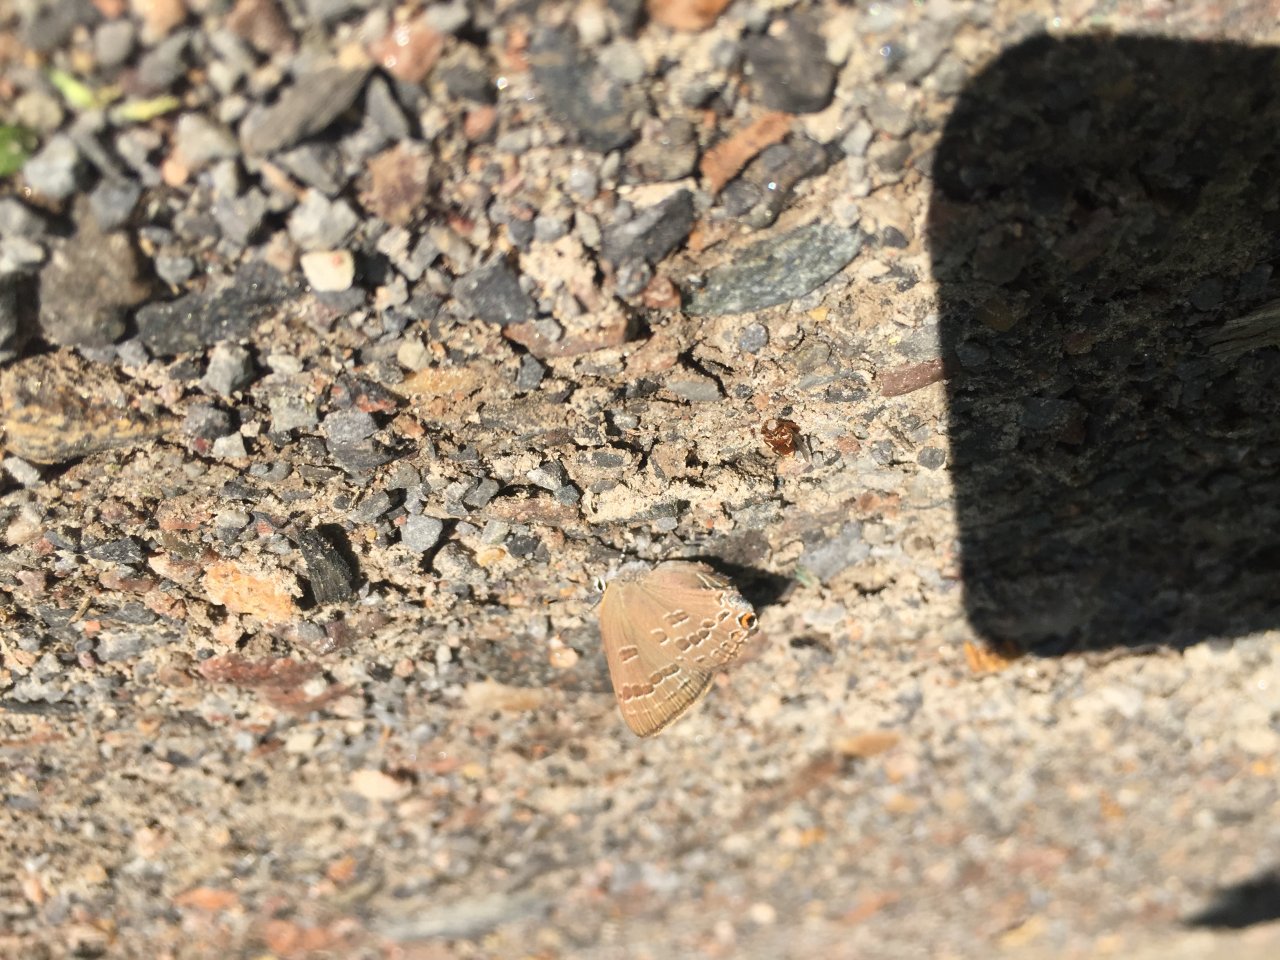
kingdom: Animalia
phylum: Arthropoda
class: Insecta
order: Lepidoptera
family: Lycaenidae
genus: Satyrium
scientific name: Satyrium calanus
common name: Banded Hairstreak
